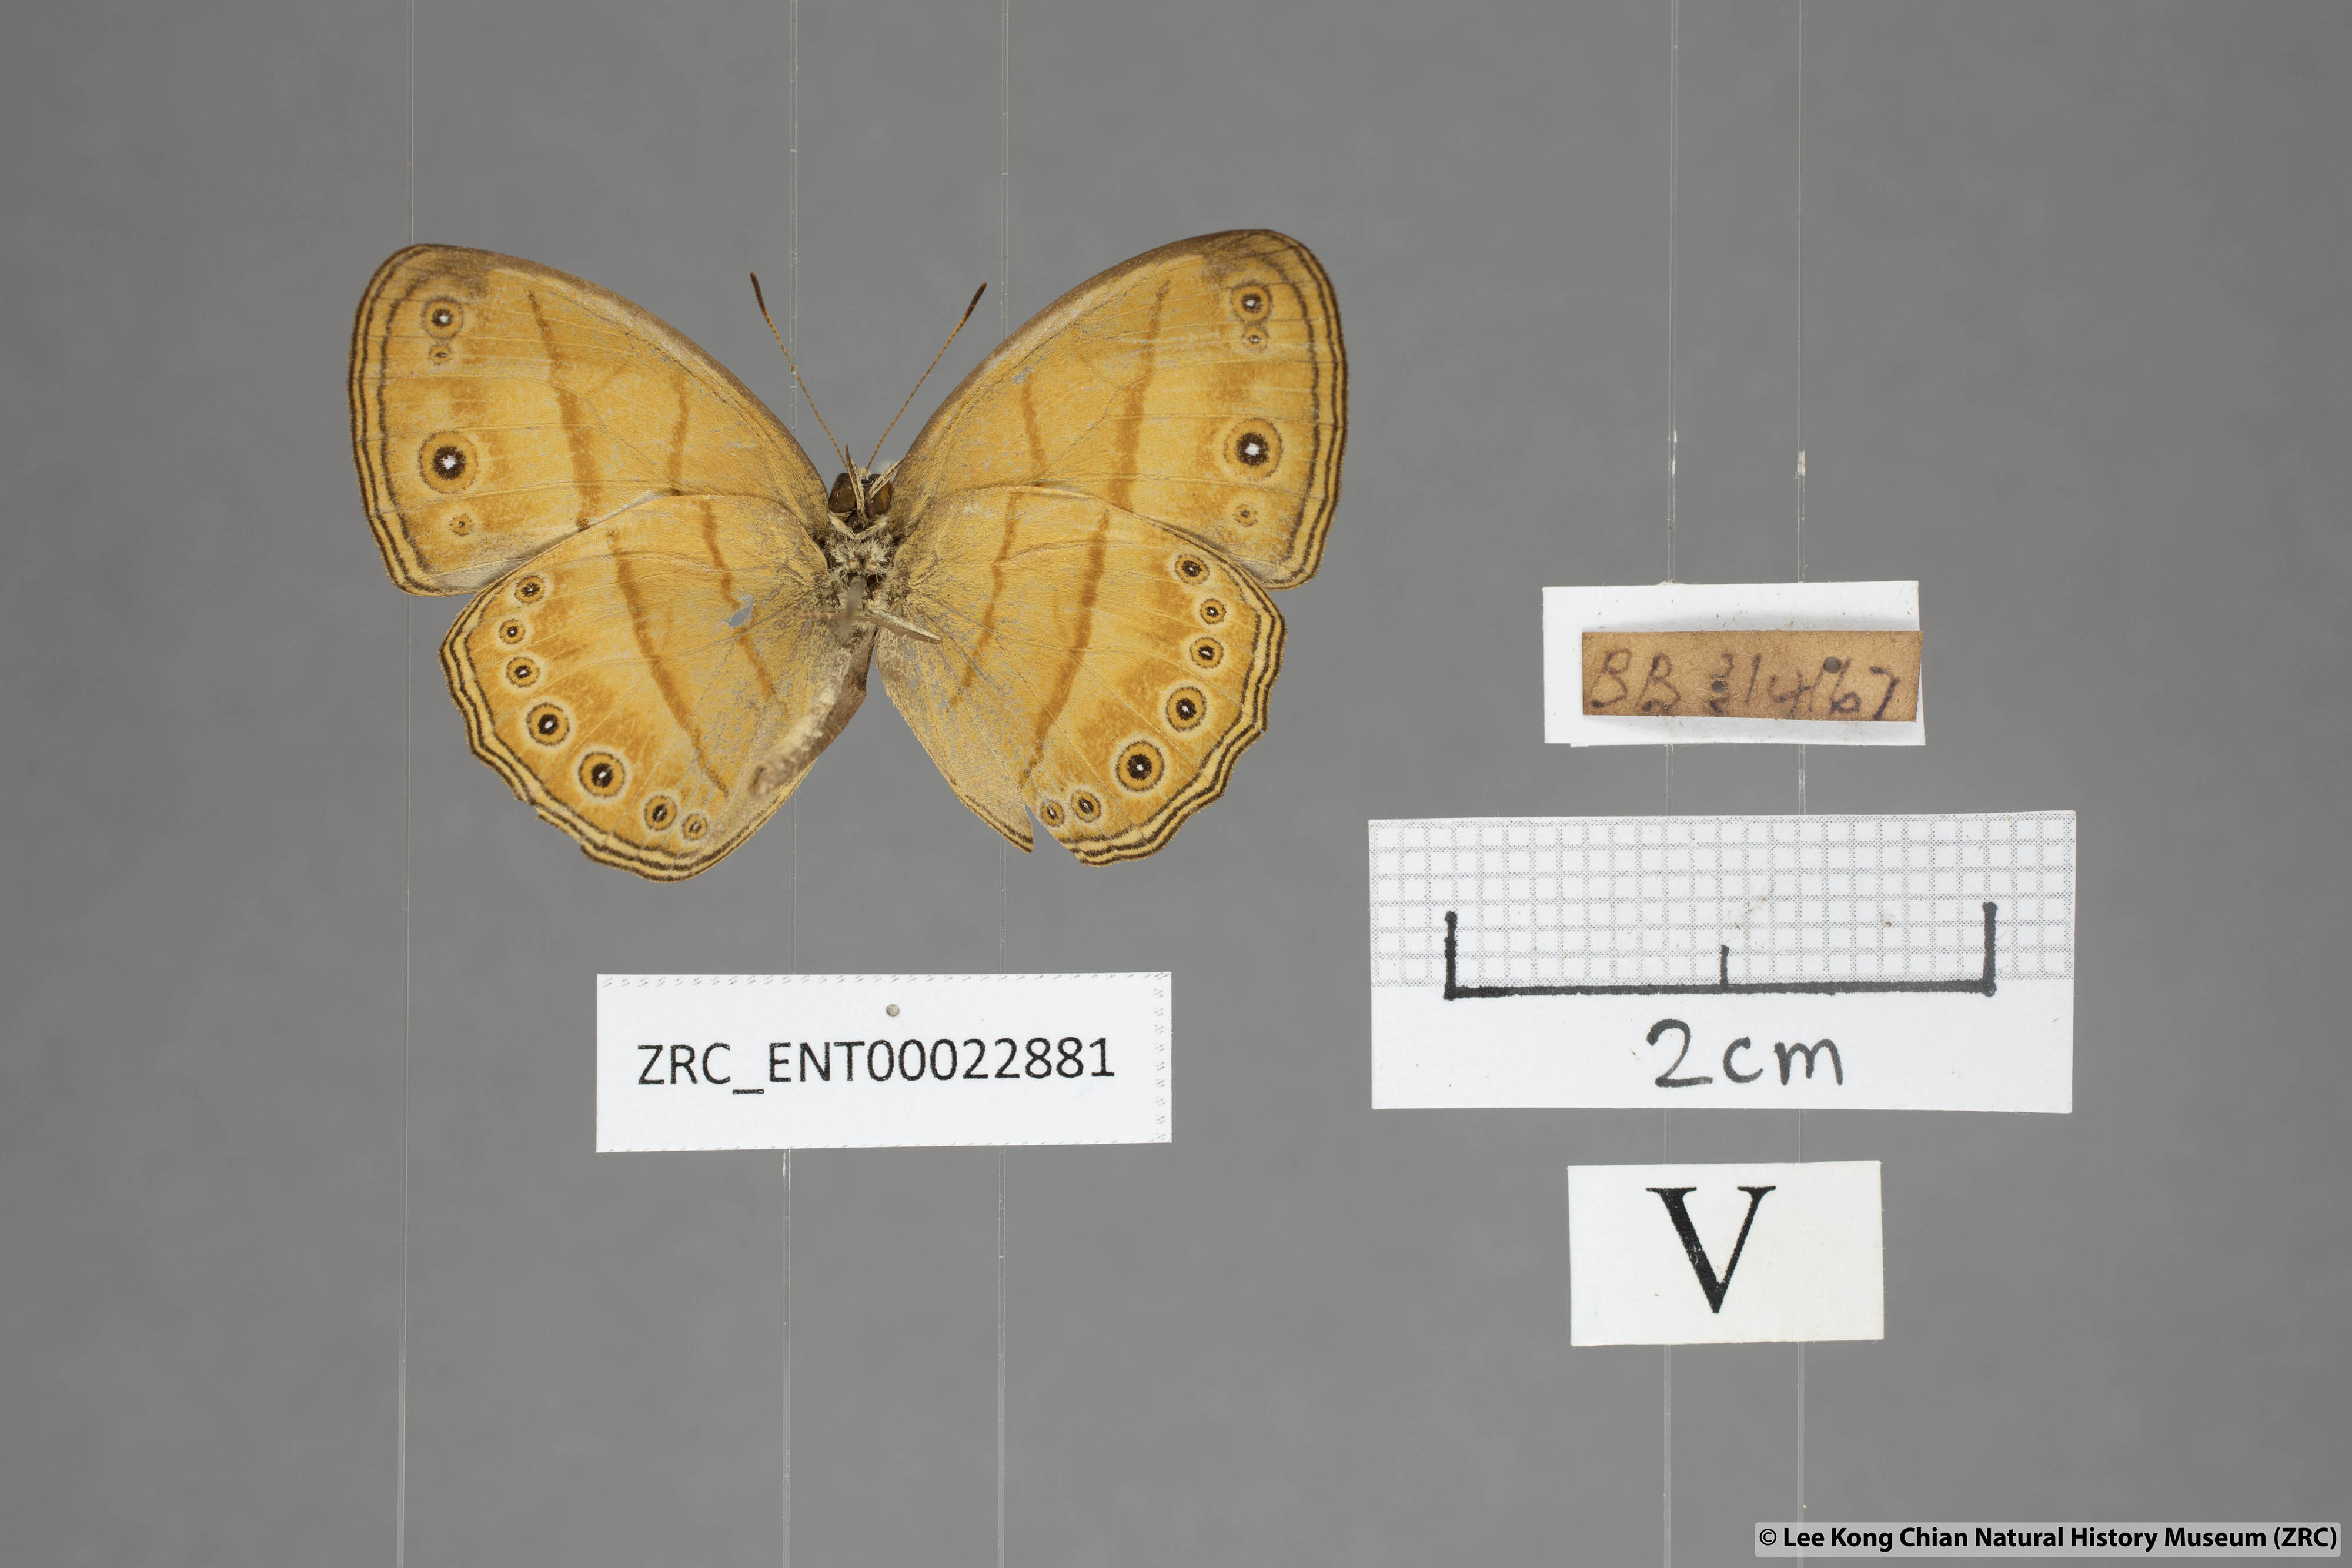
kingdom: Animalia
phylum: Arthropoda
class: Insecta
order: Lepidoptera
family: Nymphalidae
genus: Mycalesis
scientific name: Mycalesis anapita
